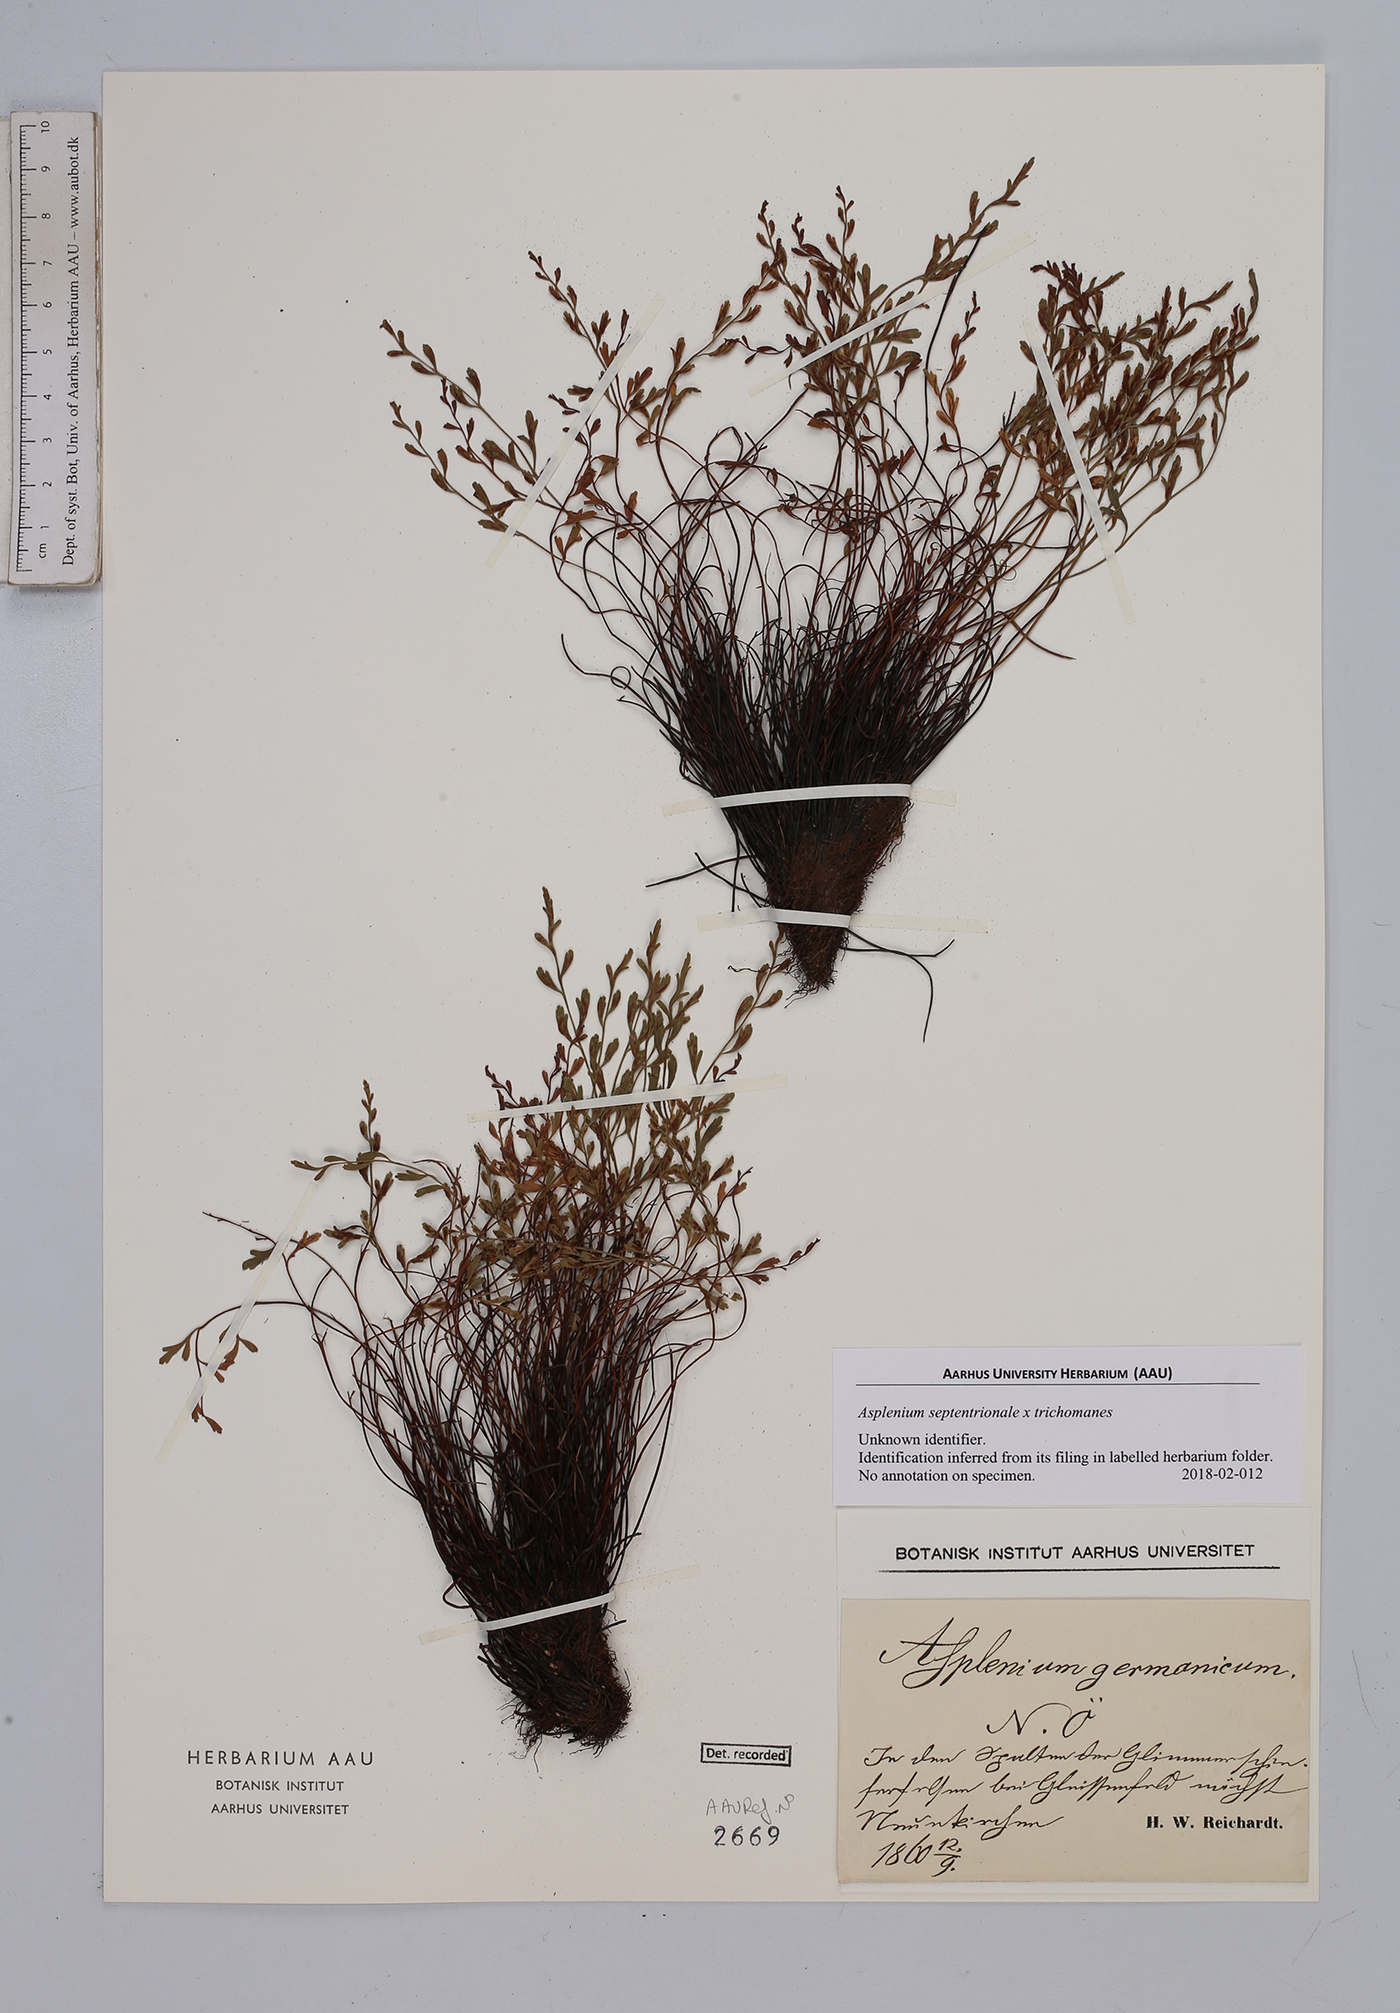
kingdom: Plantae
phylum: Tracheophyta
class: Polypodiopsida
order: Polypodiales
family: Aspleniaceae
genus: Asplenium
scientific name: Asplenium
